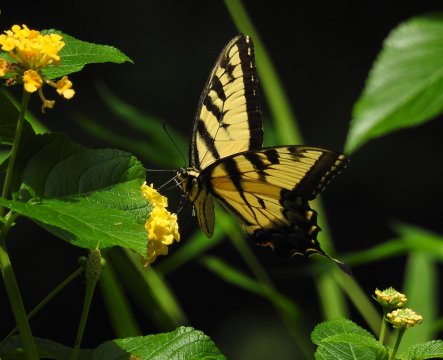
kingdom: Animalia
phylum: Arthropoda
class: Insecta
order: Lepidoptera
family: Papilionidae
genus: Pterourus
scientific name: Pterourus glaucus
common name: Eastern Tiger Swallowtail
